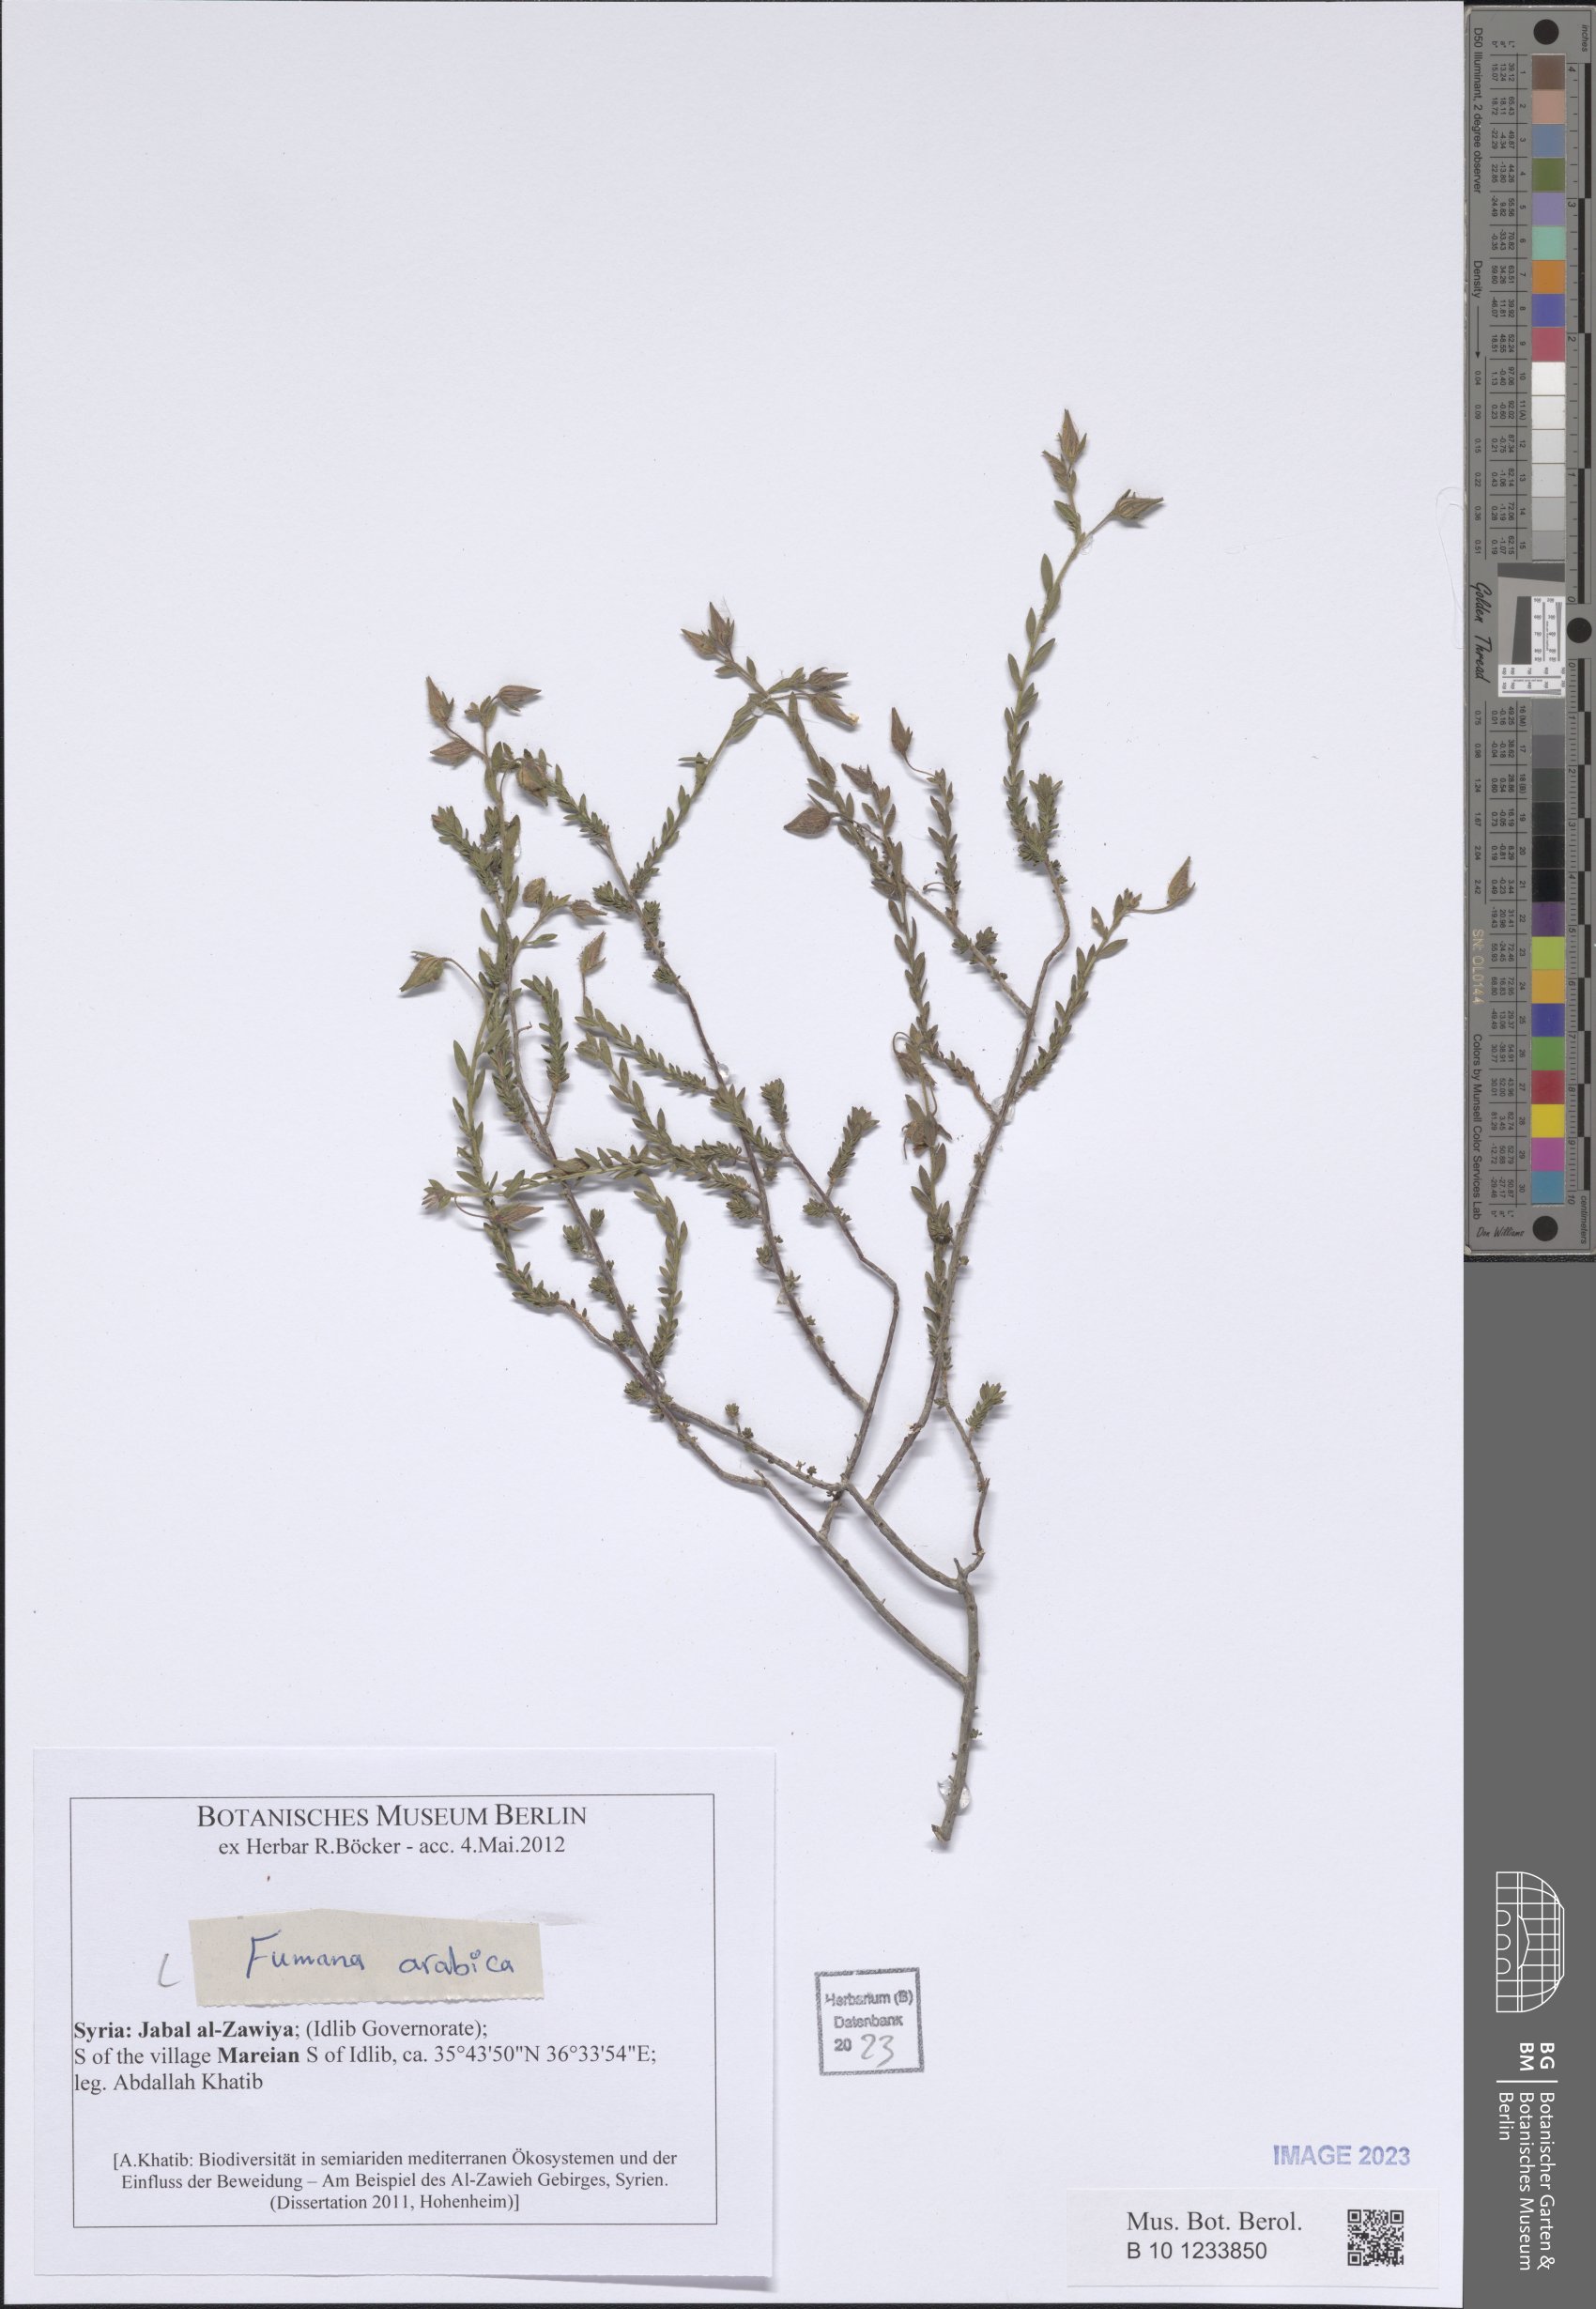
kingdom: Plantae
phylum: Tracheophyta
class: Magnoliopsida
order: Malvales
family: Cistaceae
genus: Fumana
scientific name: Fumana arabica
